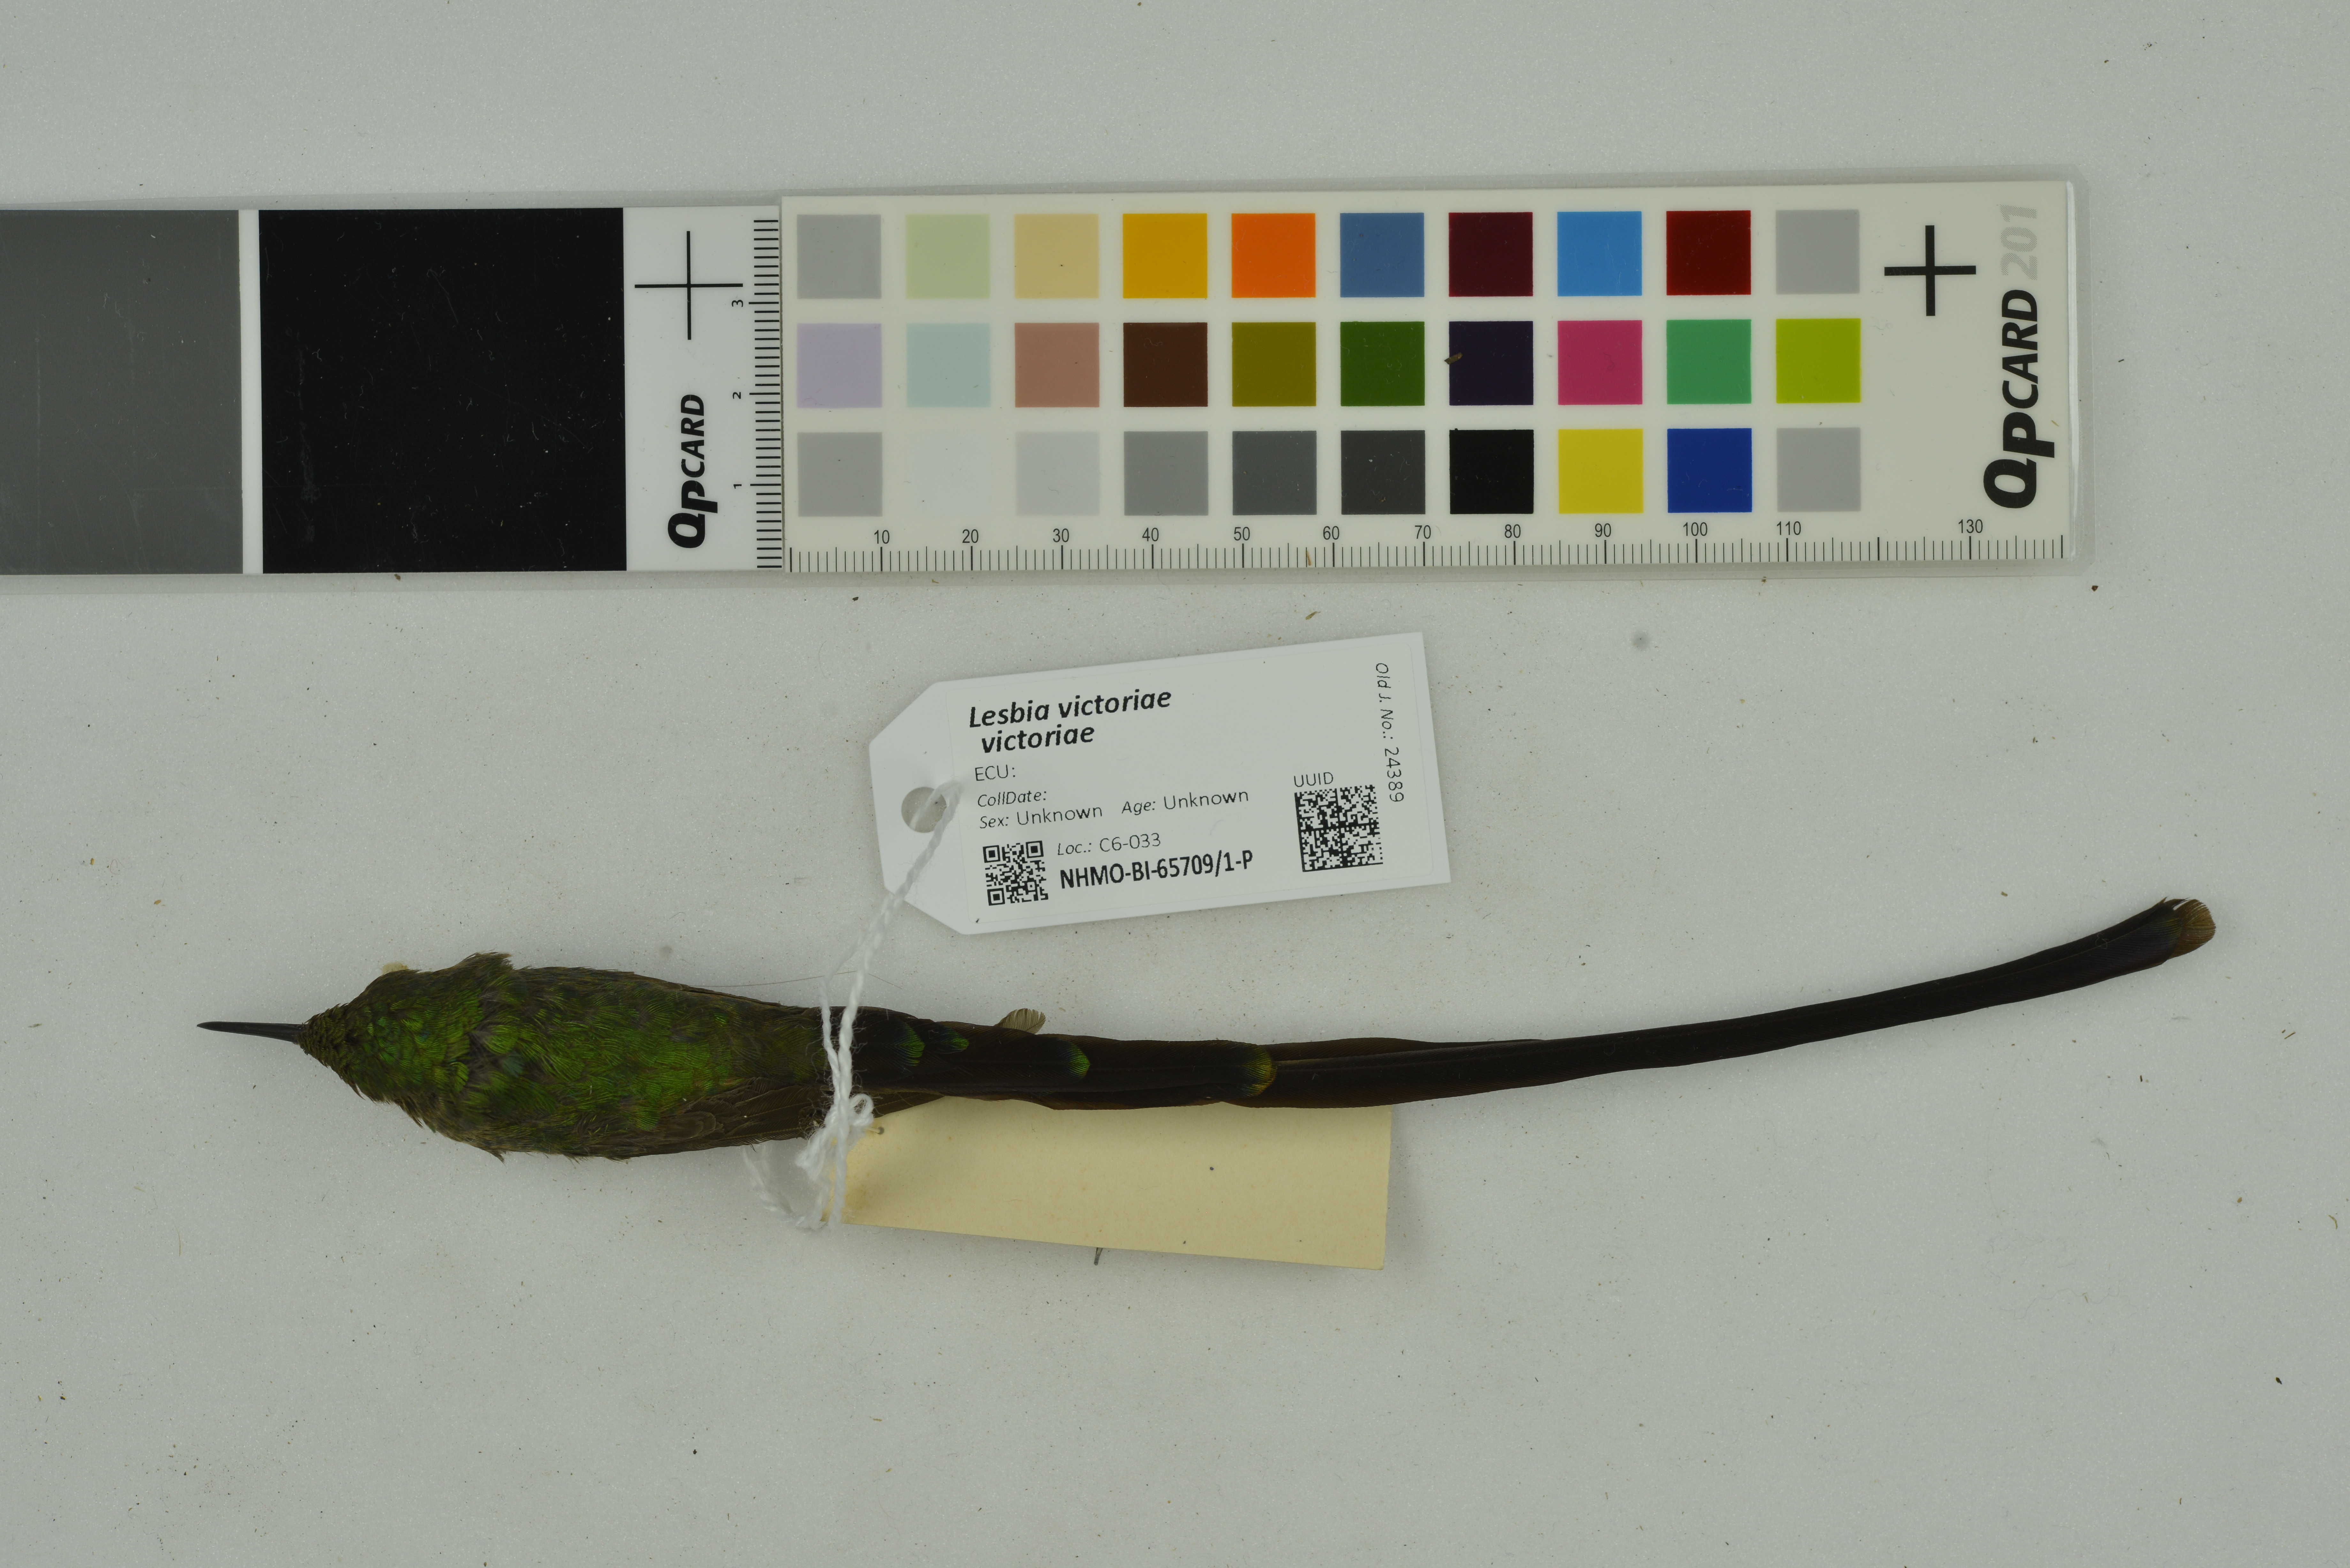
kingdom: Animalia
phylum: Chordata
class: Aves
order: Apodiformes
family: Trochilidae
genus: Lesbia
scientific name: Lesbia victoriae
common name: Black-tailed trainbearer
